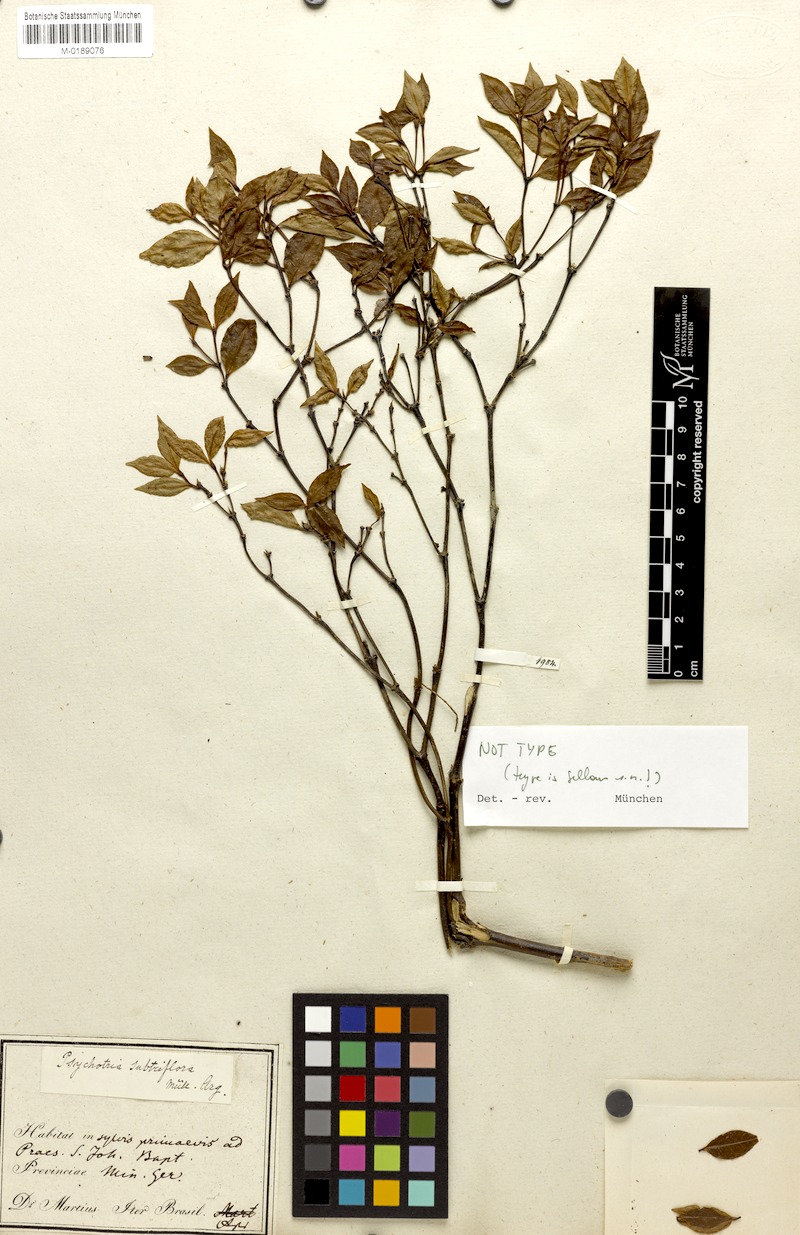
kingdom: Plantae
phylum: Tracheophyta
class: Magnoliopsida
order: Gentianales
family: Rubiaceae
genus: Psychotria
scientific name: Psychotria subtriflora
